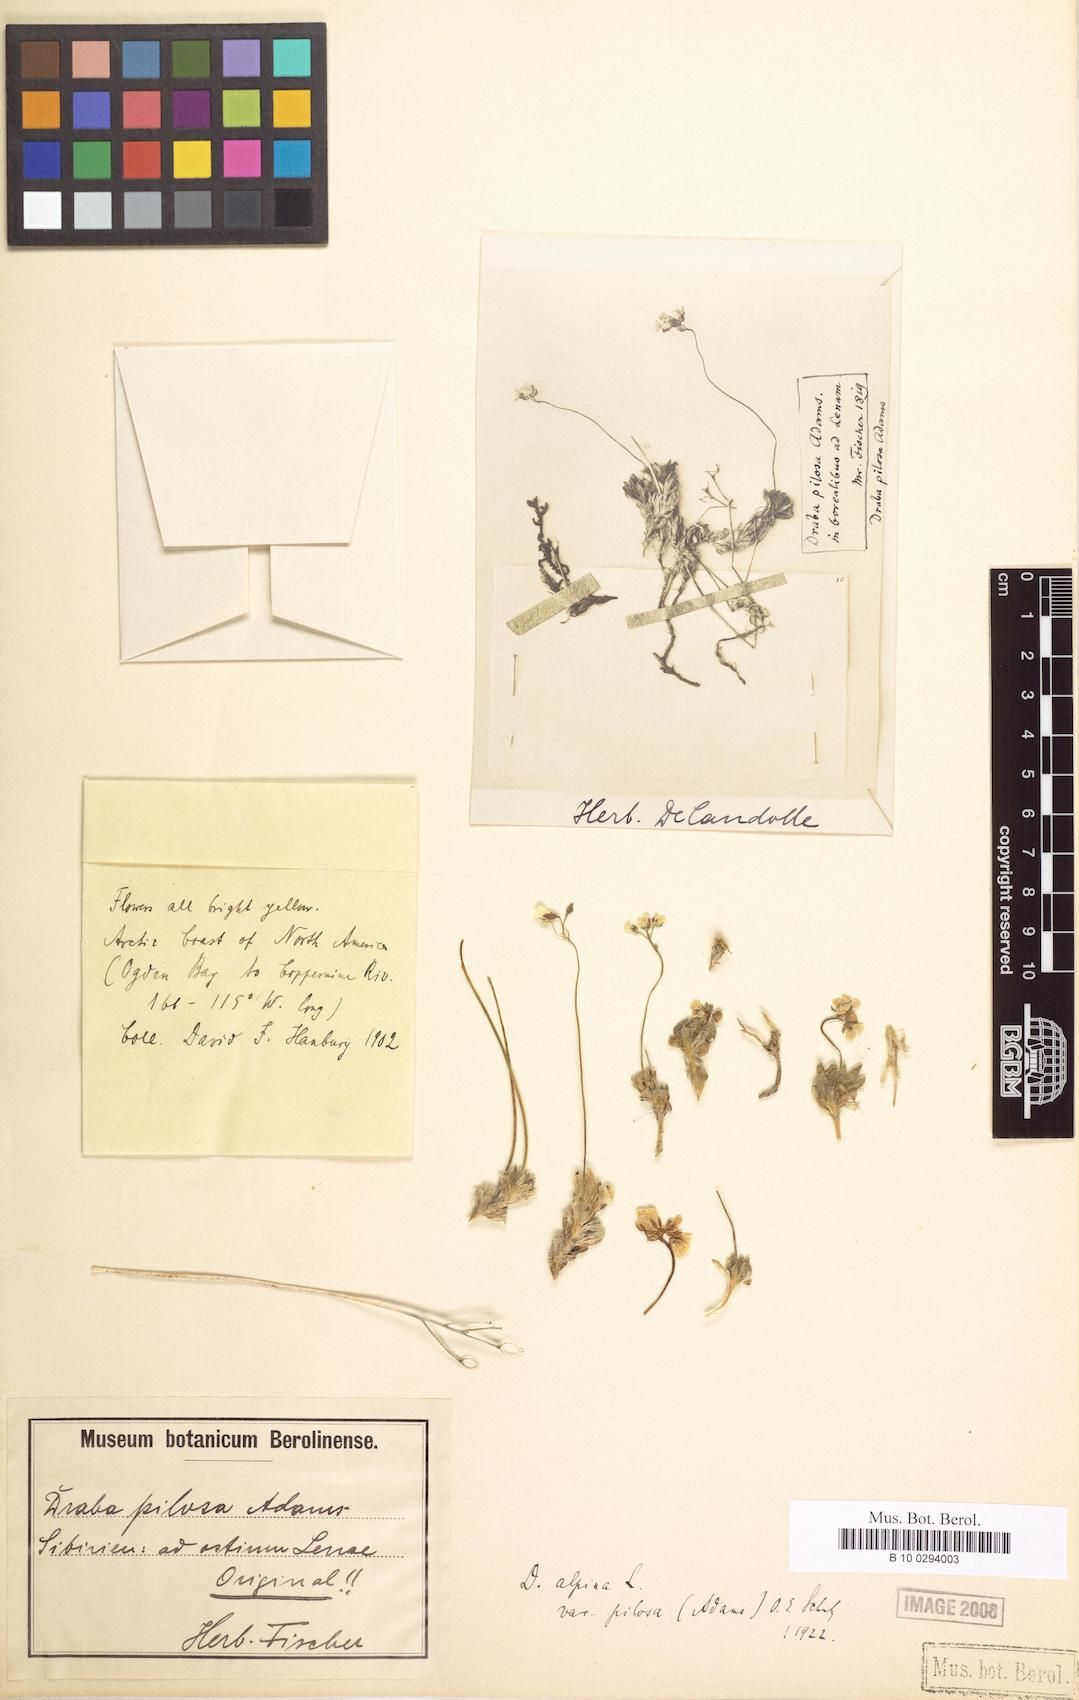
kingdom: Plantae
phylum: Tracheophyta
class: Magnoliopsida
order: Brassicales
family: Brassicaceae
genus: Draba
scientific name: Draba pilosa
